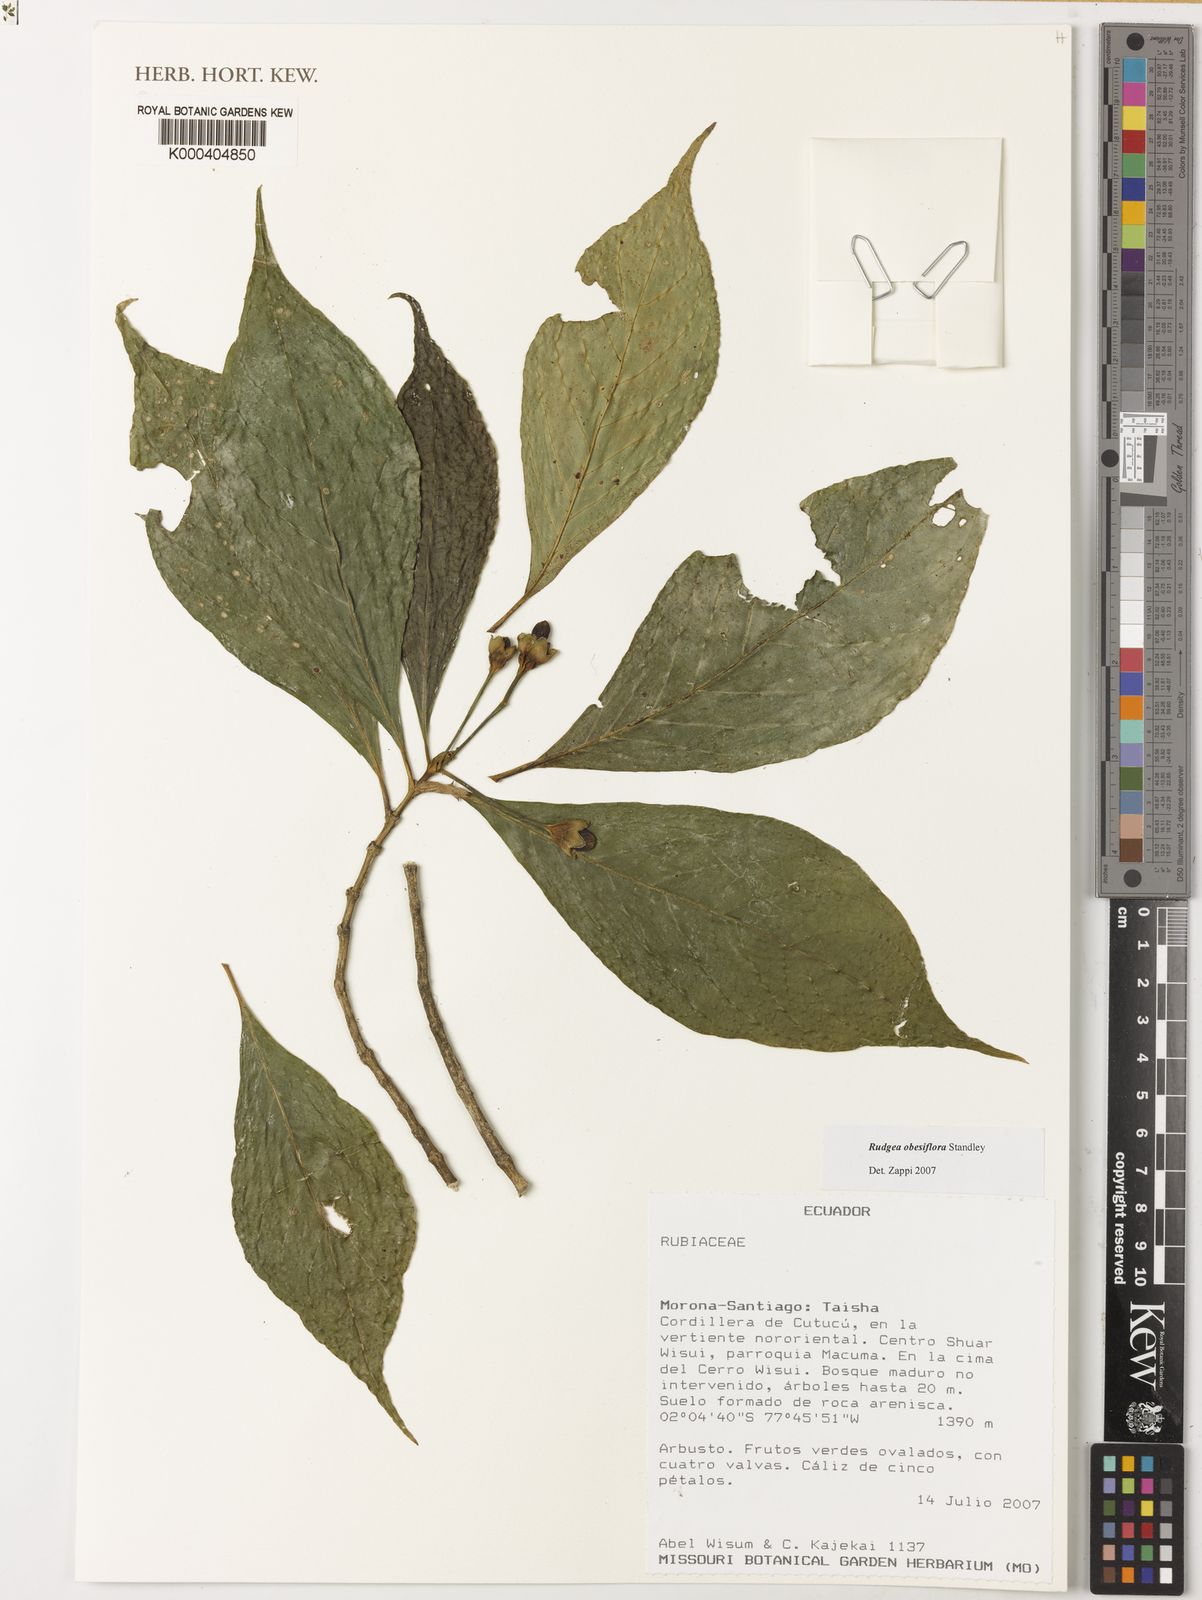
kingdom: Plantae
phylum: Tracheophyta
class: Magnoliopsida
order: Gentianales
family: Rubiaceae
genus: Rudgea
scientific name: Rudgea obesiflora
